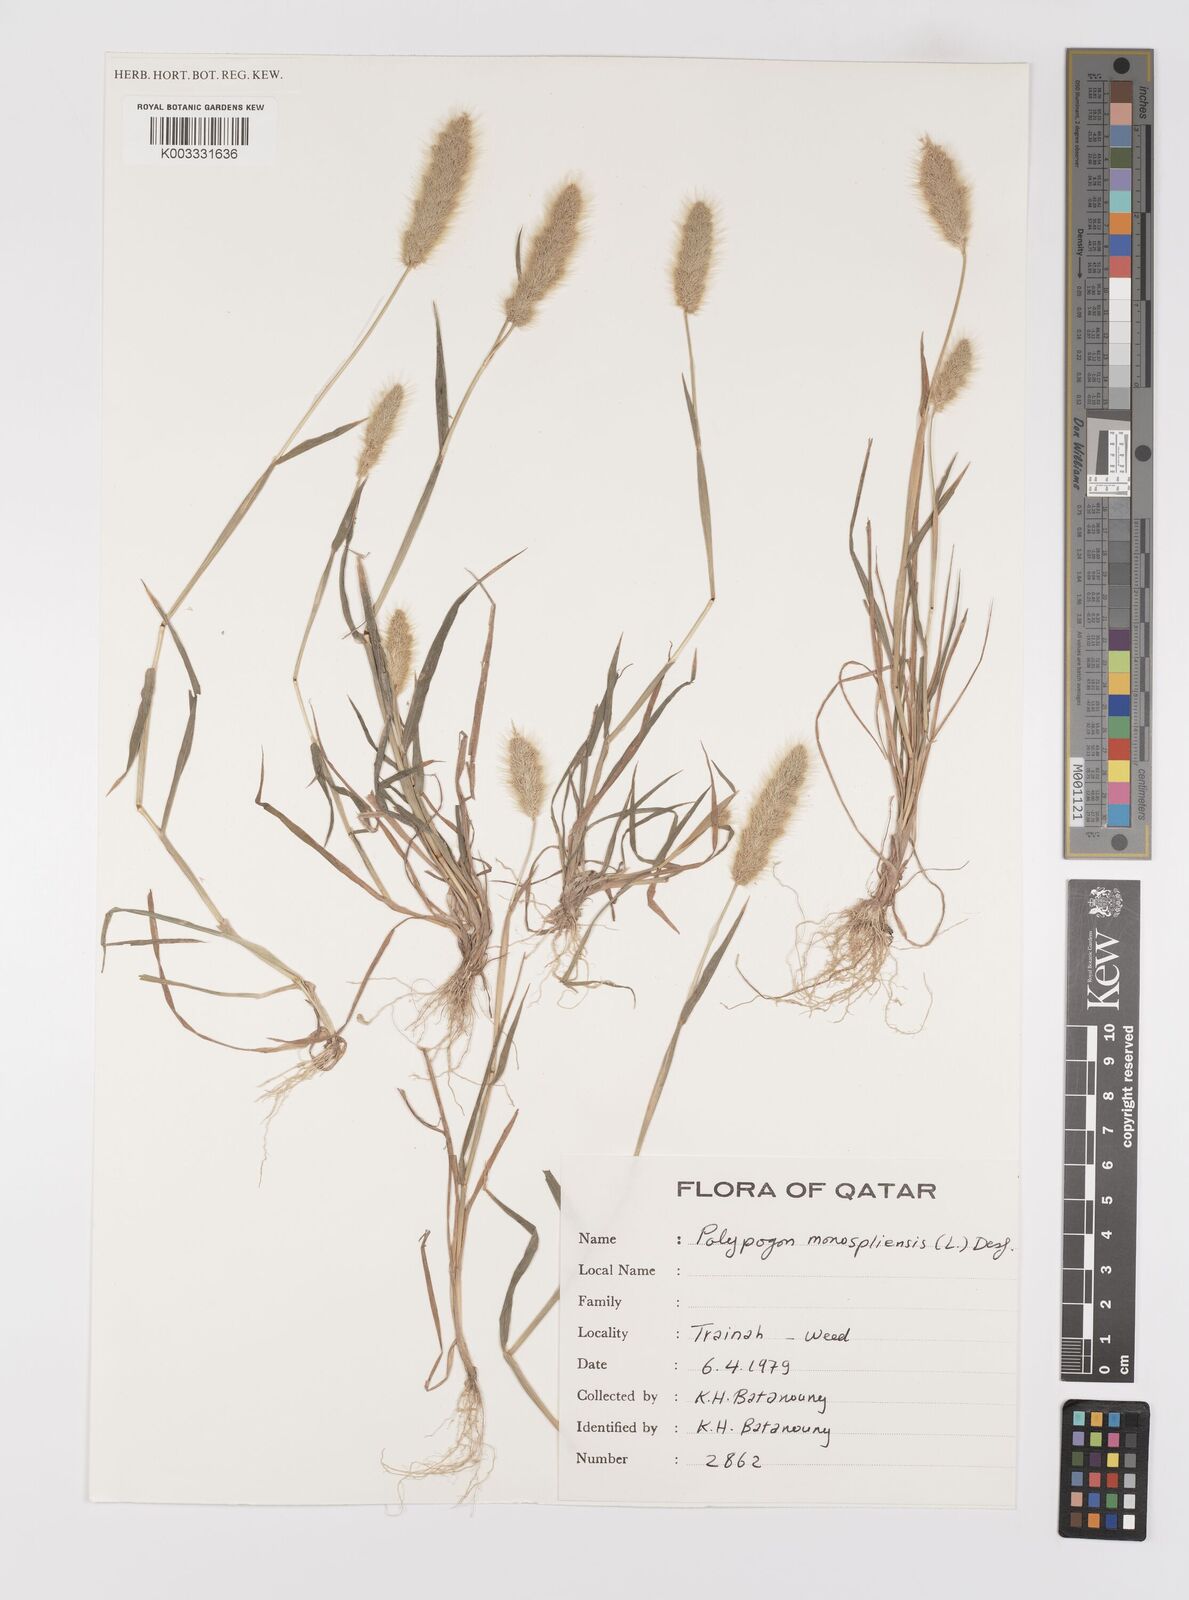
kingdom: Plantae
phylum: Tracheophyta
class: Liliopsida
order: Poales
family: Poaceae
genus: Polypogon
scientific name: Polypogon monspeliensis
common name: Annual rabbitsfoot grass
